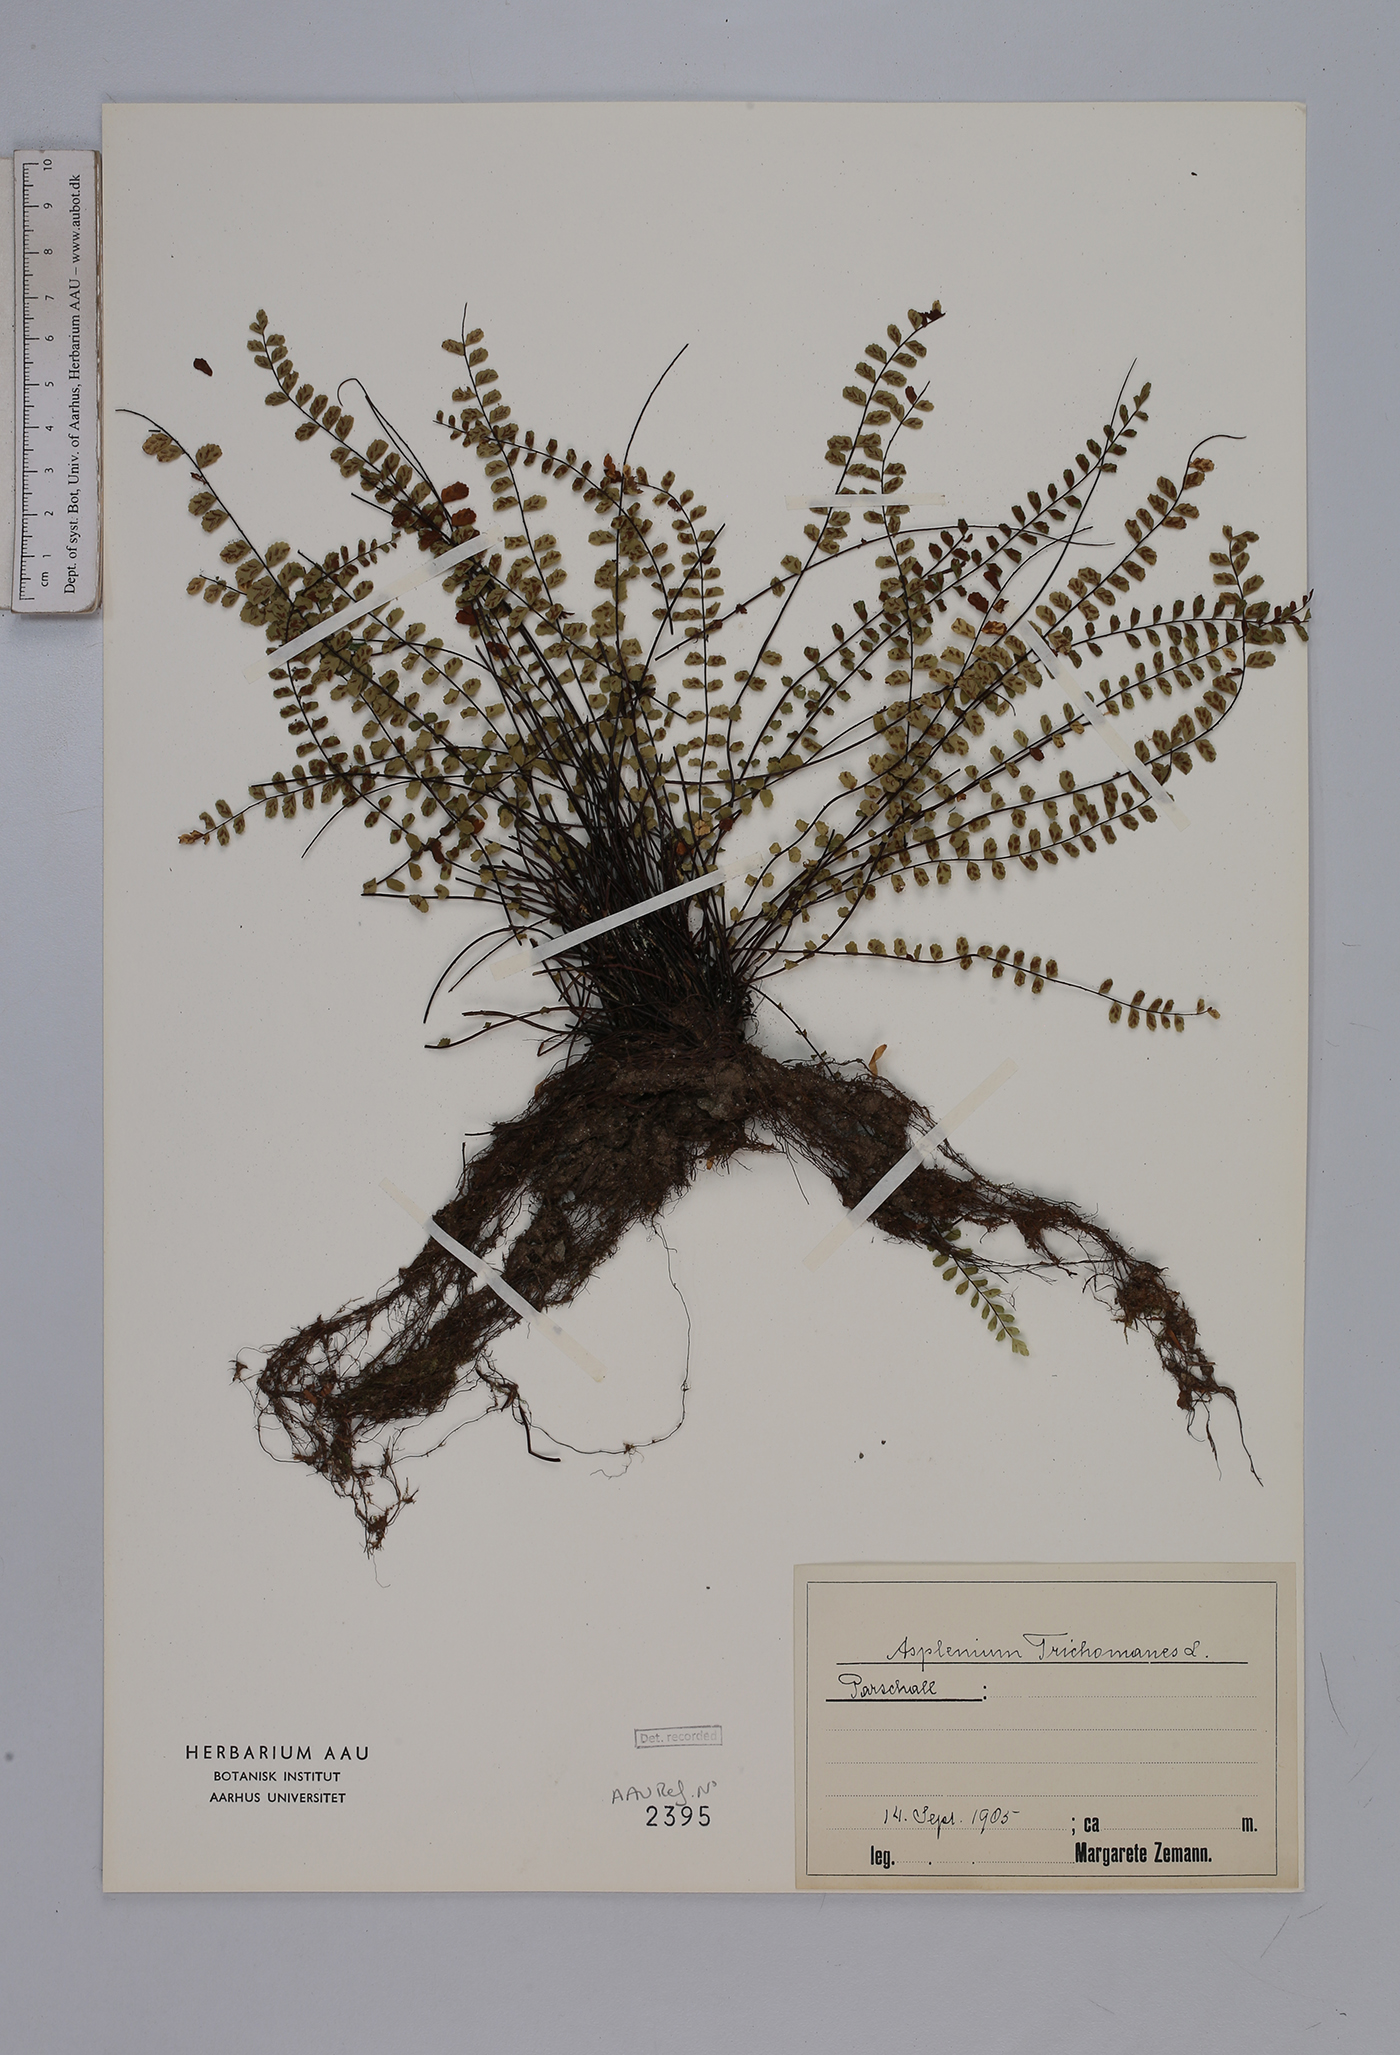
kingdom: Plantae
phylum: Tracheophyta
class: Polypodiopsida
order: Polypodiales
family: Aspleniaceae
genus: Asplenium
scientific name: Asplenium trichomanes
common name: Maidenhair spleenwort
